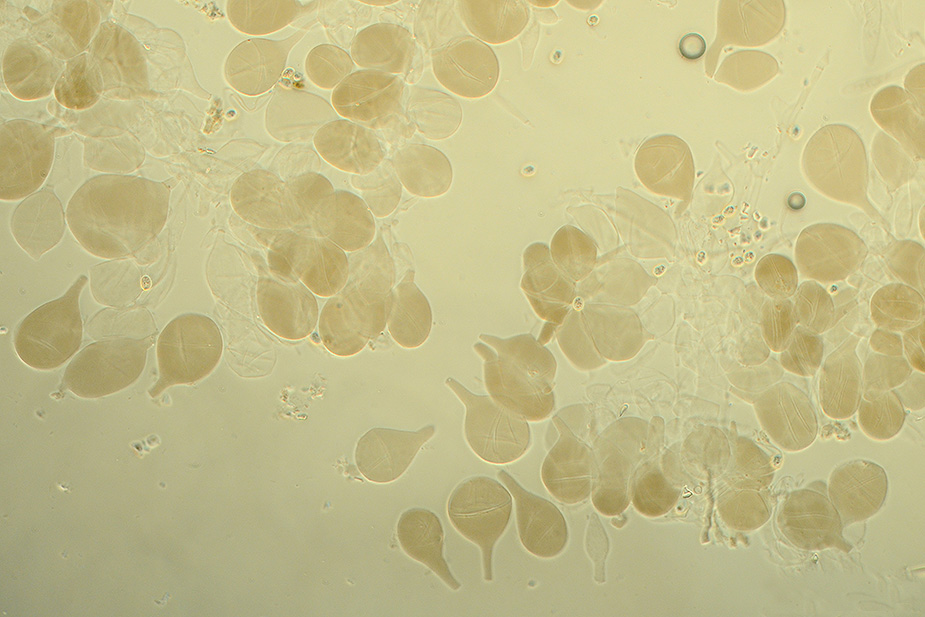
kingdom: Fungi
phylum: Basidiomycota
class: Agaricomycetes
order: Agaricales
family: Pluteaceae
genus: Pluteus
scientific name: Pluteus
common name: pudret skærmhat
